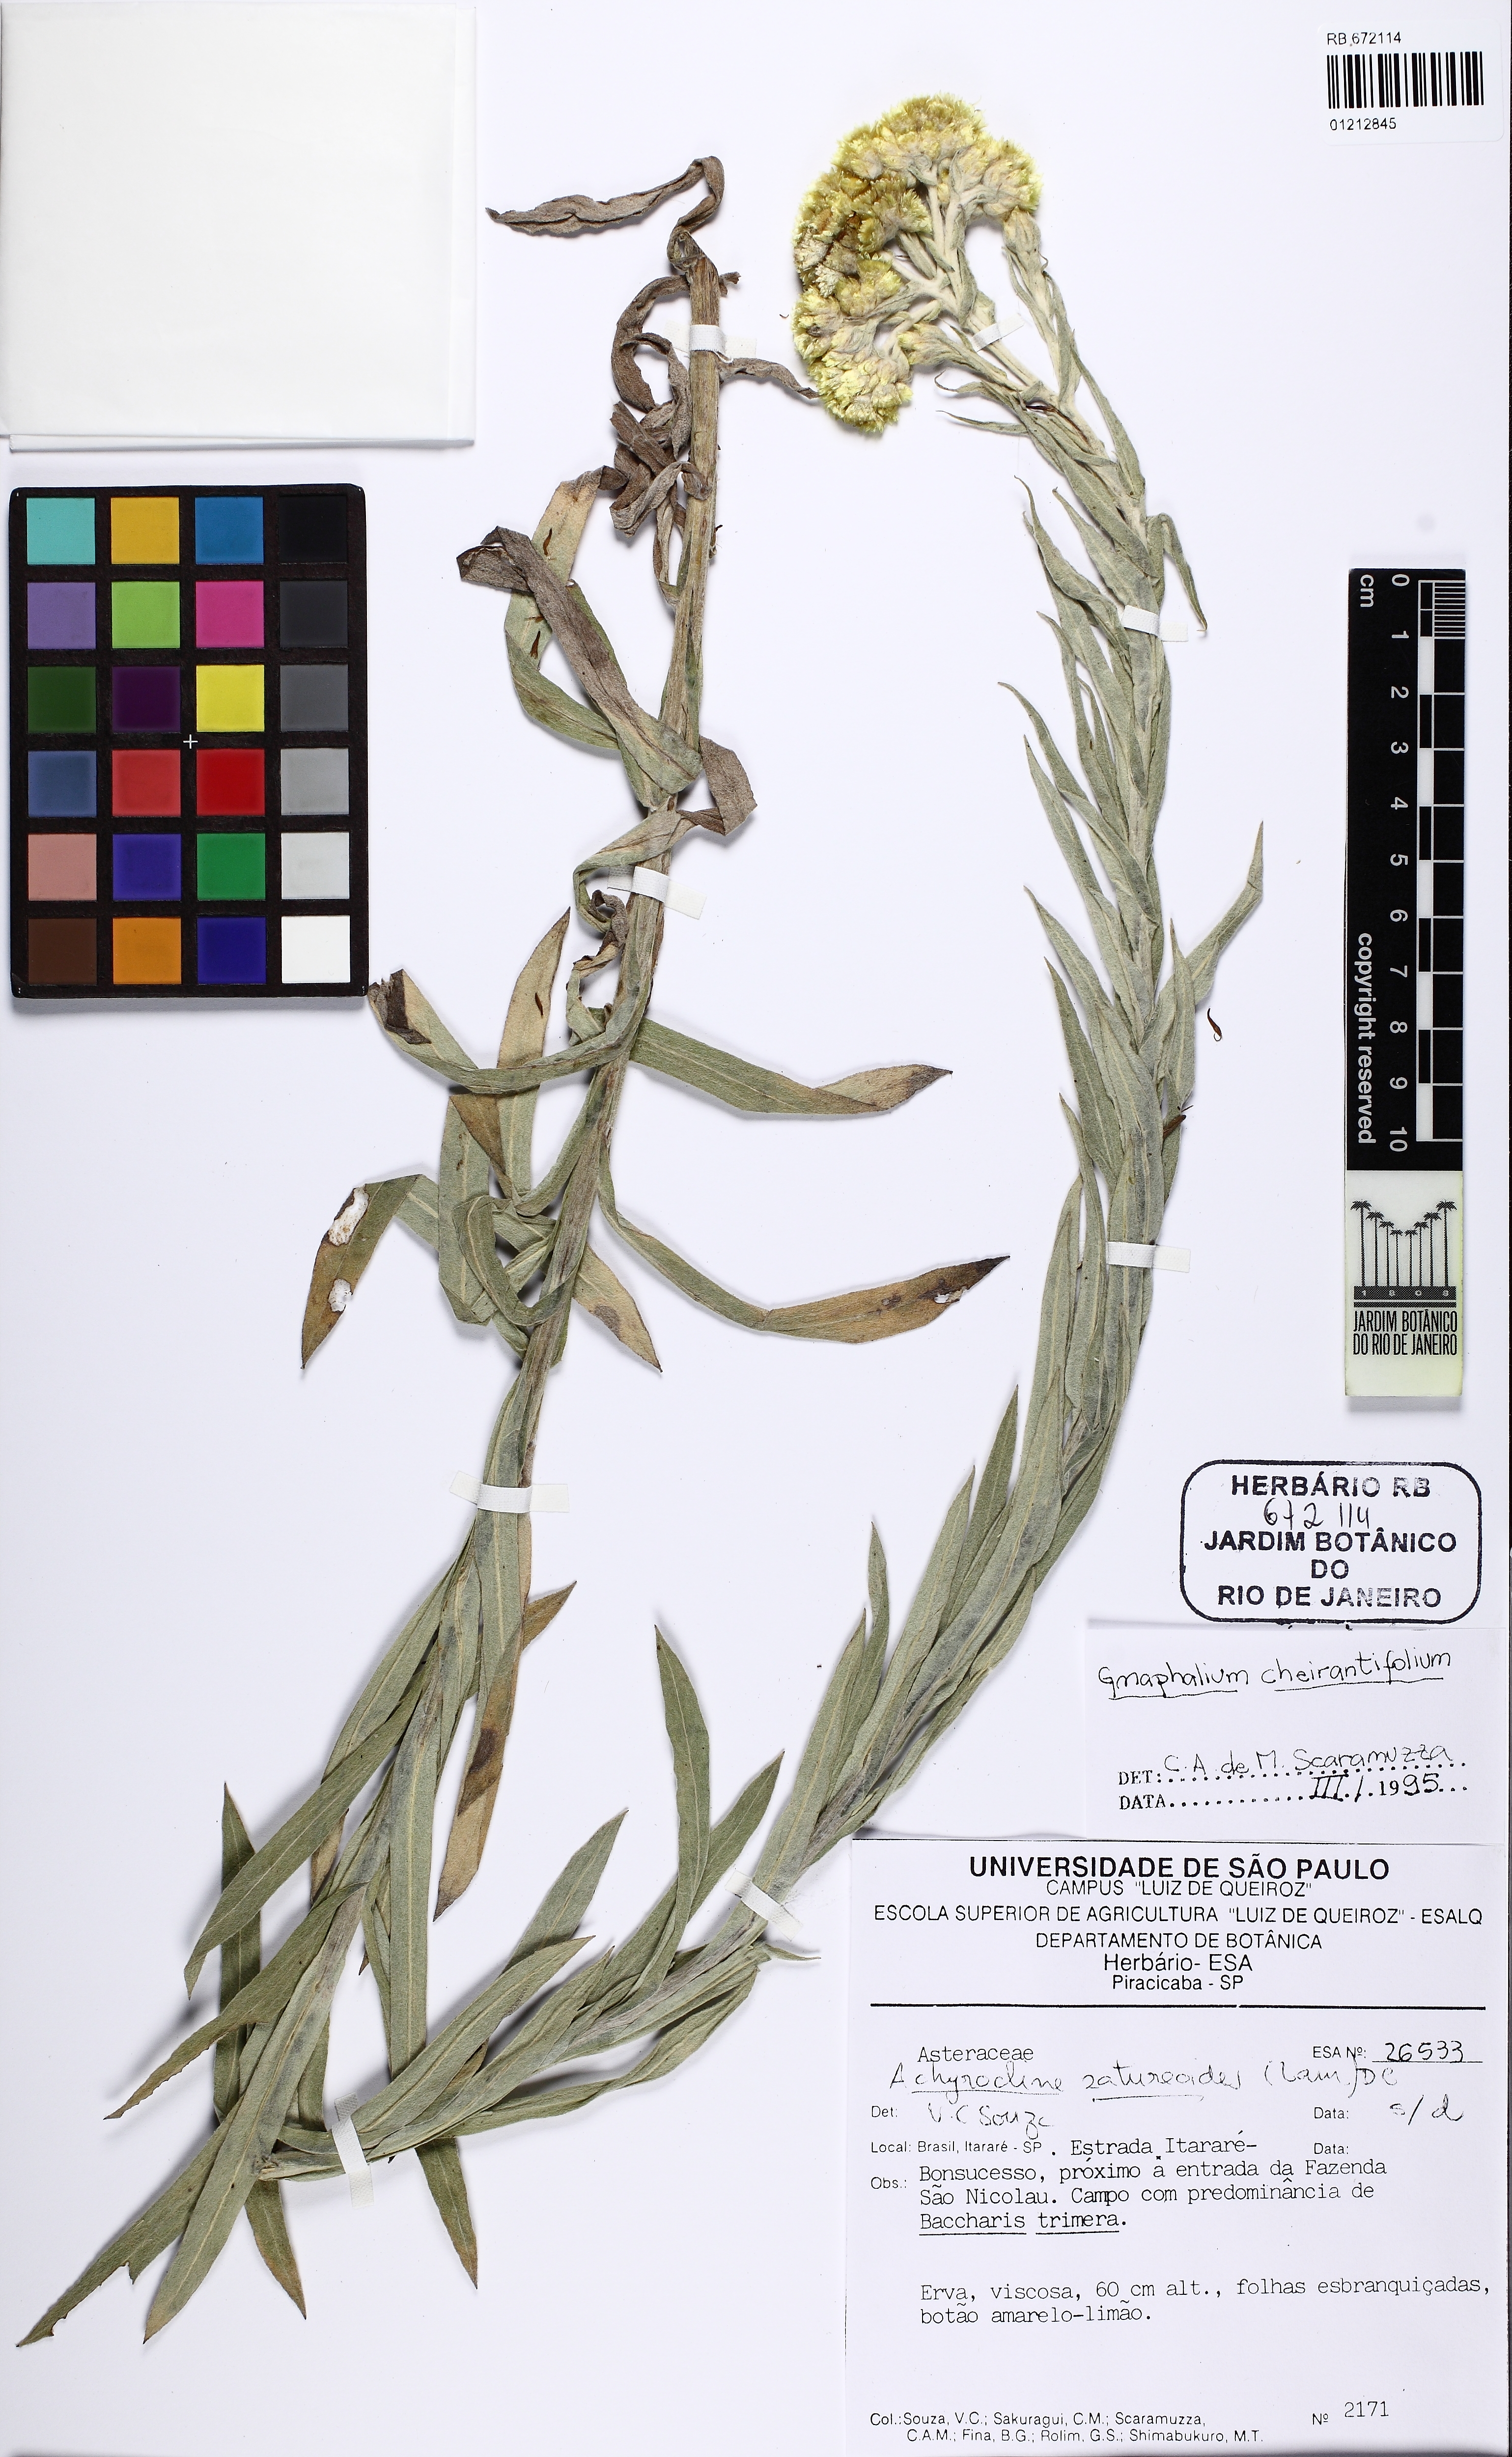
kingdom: Plantae
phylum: Tracheophyta
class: Magnoliopsida
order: Asterales
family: Asteraceae
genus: Pseudognaphalium
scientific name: Pseudognaphalium cheiranthifolium
